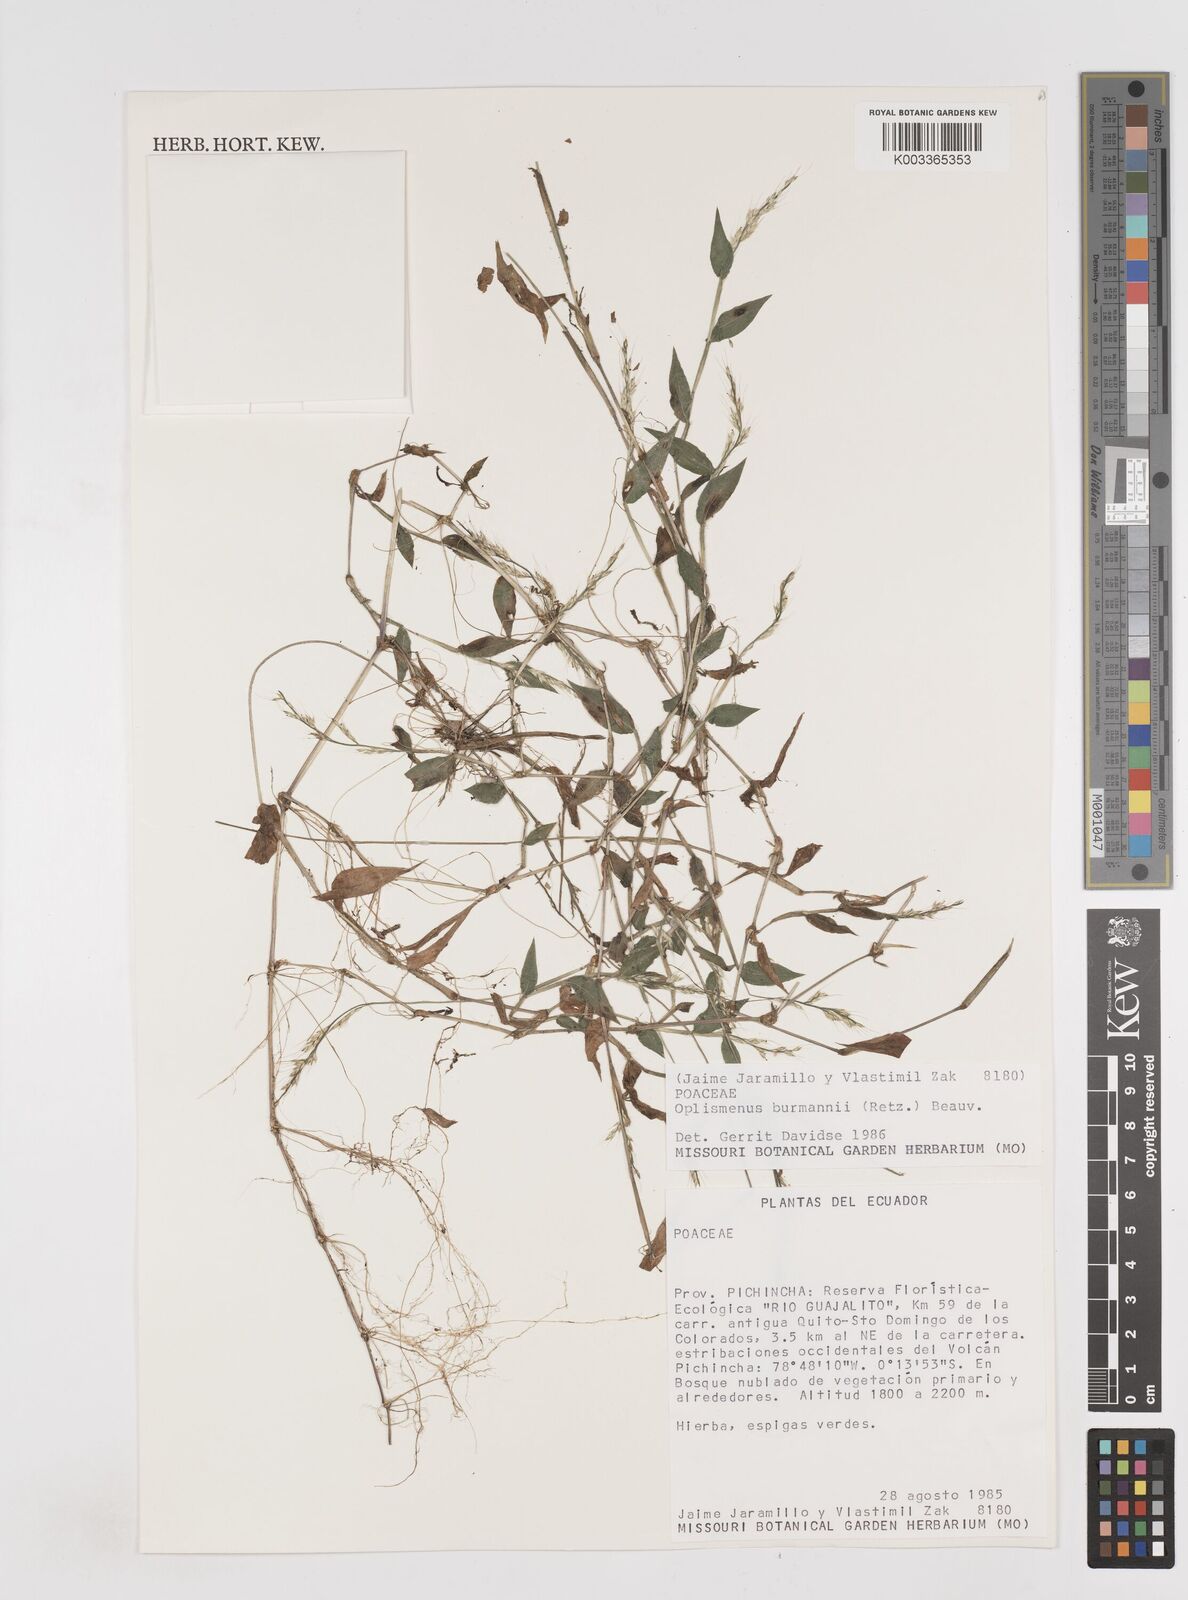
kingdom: Plantae
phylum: Tracheophyta
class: Liliopsida
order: Poales
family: Poaceae
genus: Oplismenus
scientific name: Oplismenus burmanni
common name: Burmann's basketgrass
